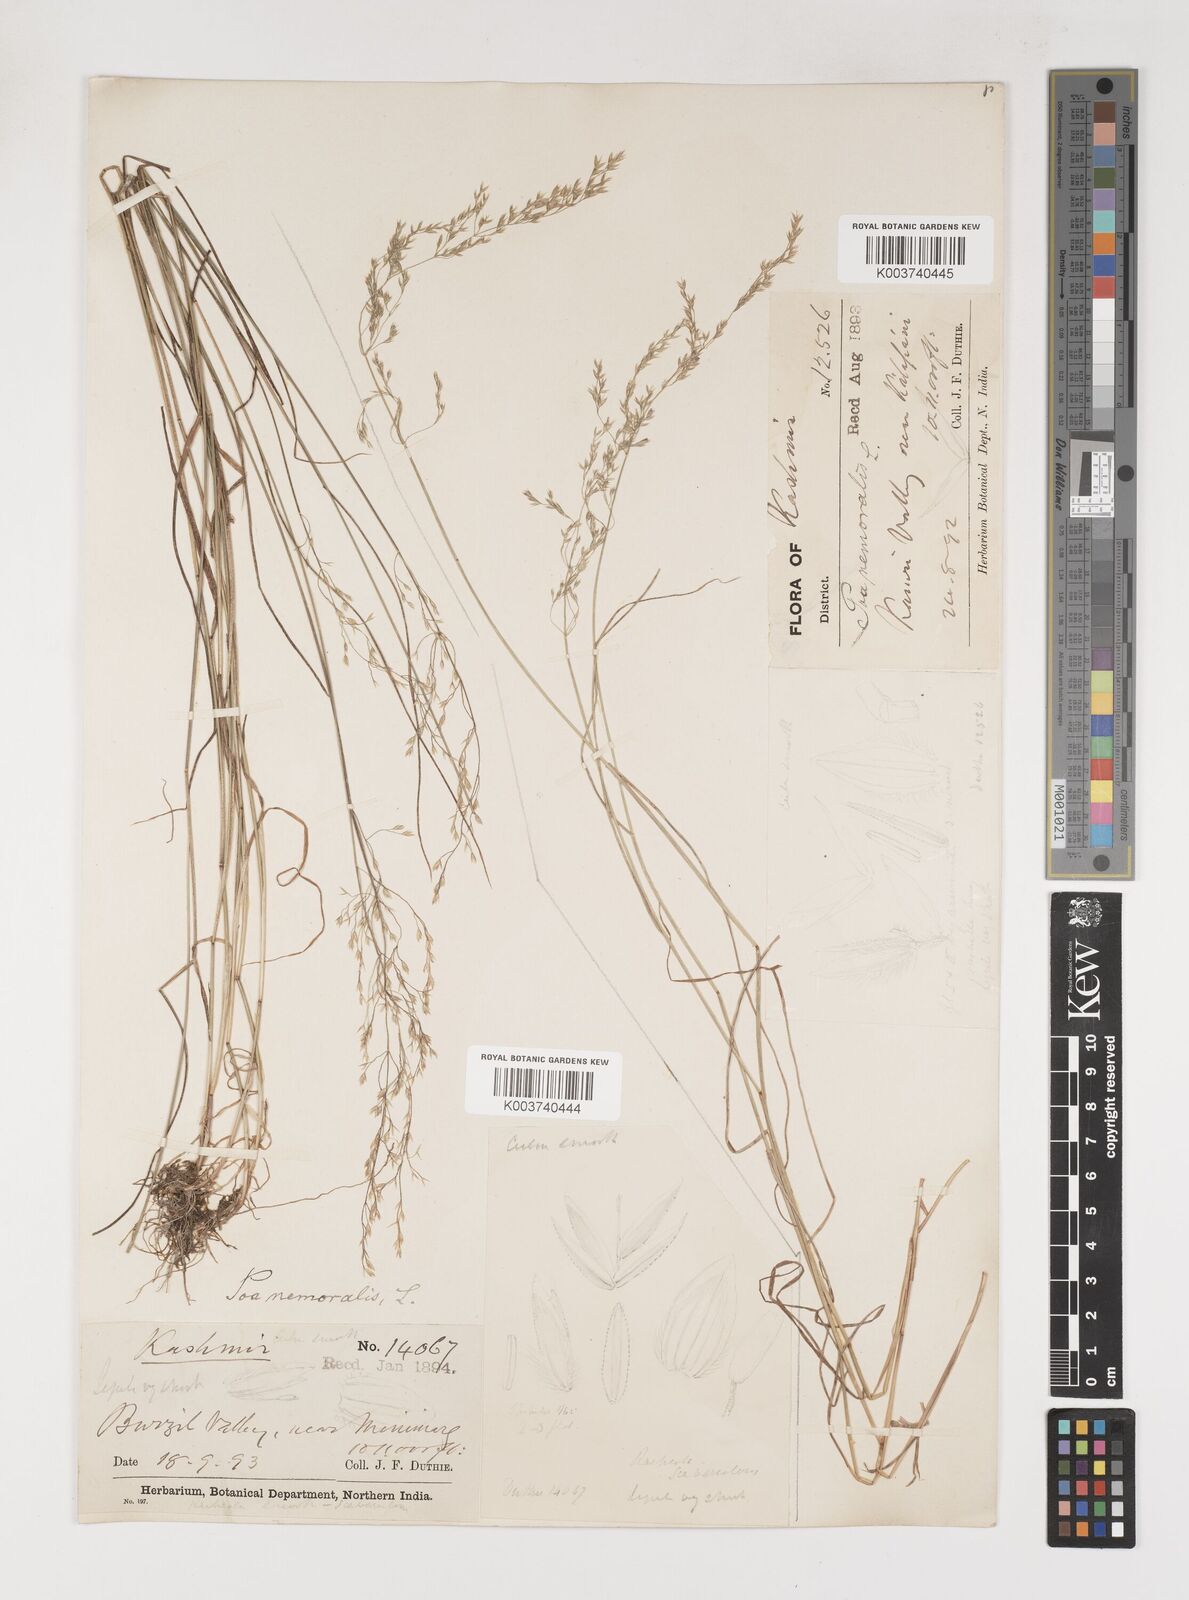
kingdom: Plantae
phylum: Tracheophyta
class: Liliopsida
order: Poales
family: Poaceae
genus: Poa
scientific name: Poa nemoralis
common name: Wood bluegrass
